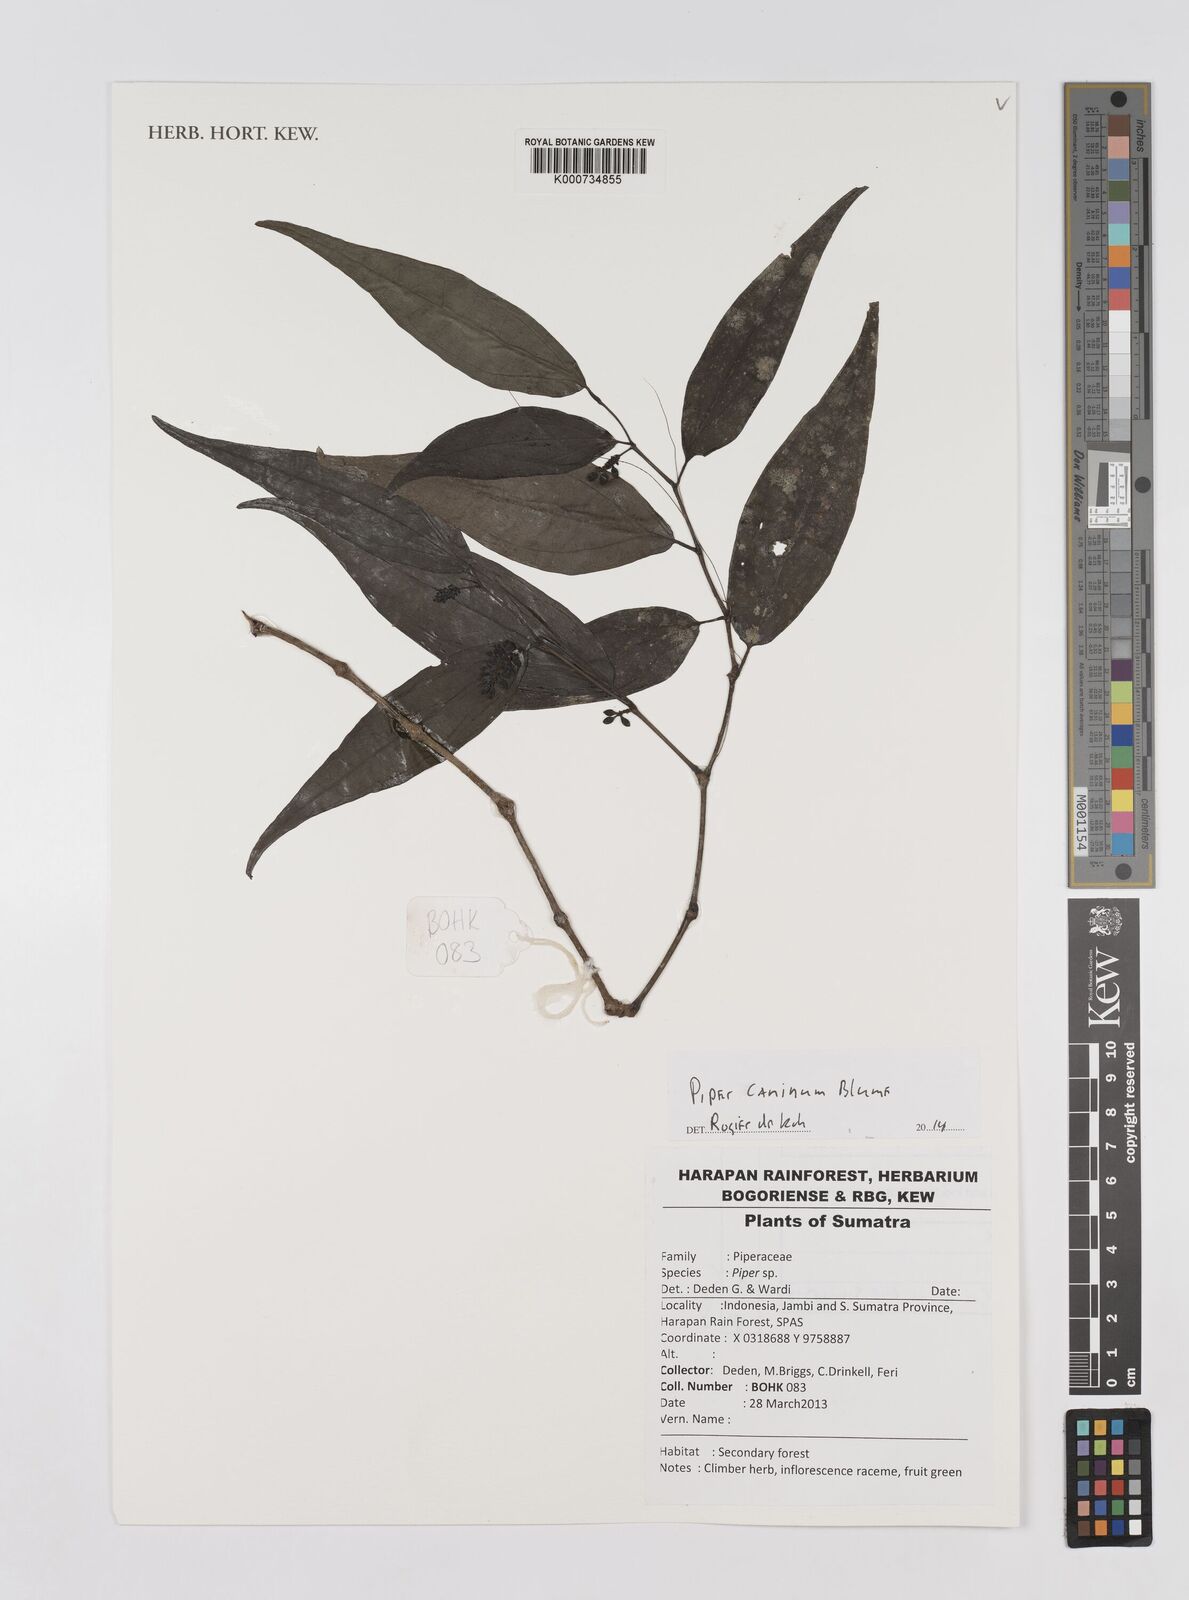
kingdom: Plantae
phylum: Tracheophyta
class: Magnoliopsida
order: Piperales
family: Piperaceae
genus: Piper
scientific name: Piper lanatum
